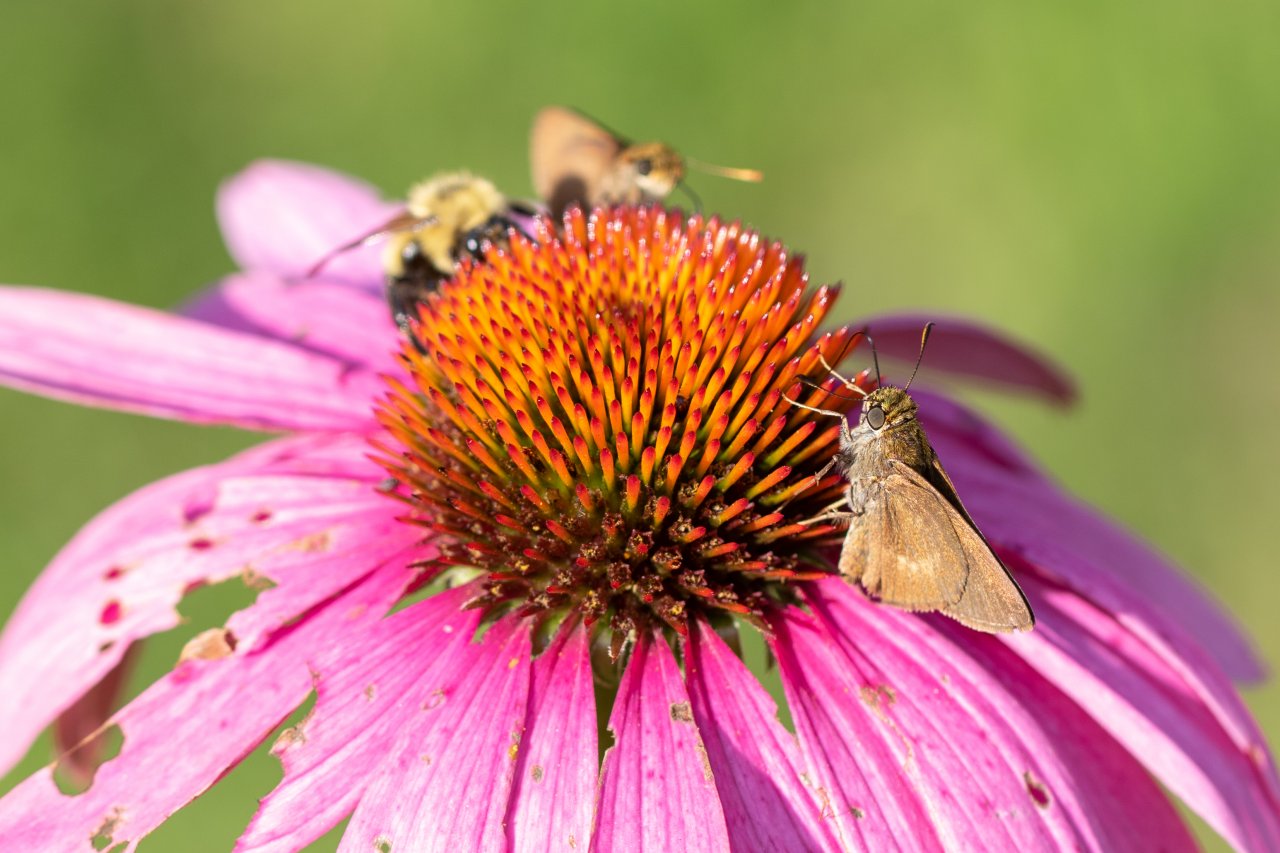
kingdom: Animalia
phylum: Arthropoda
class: Insecta
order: Lepidoptera
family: Hesperiidae
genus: Polites
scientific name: Polites egeremet
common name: Northern Broken-Dash
